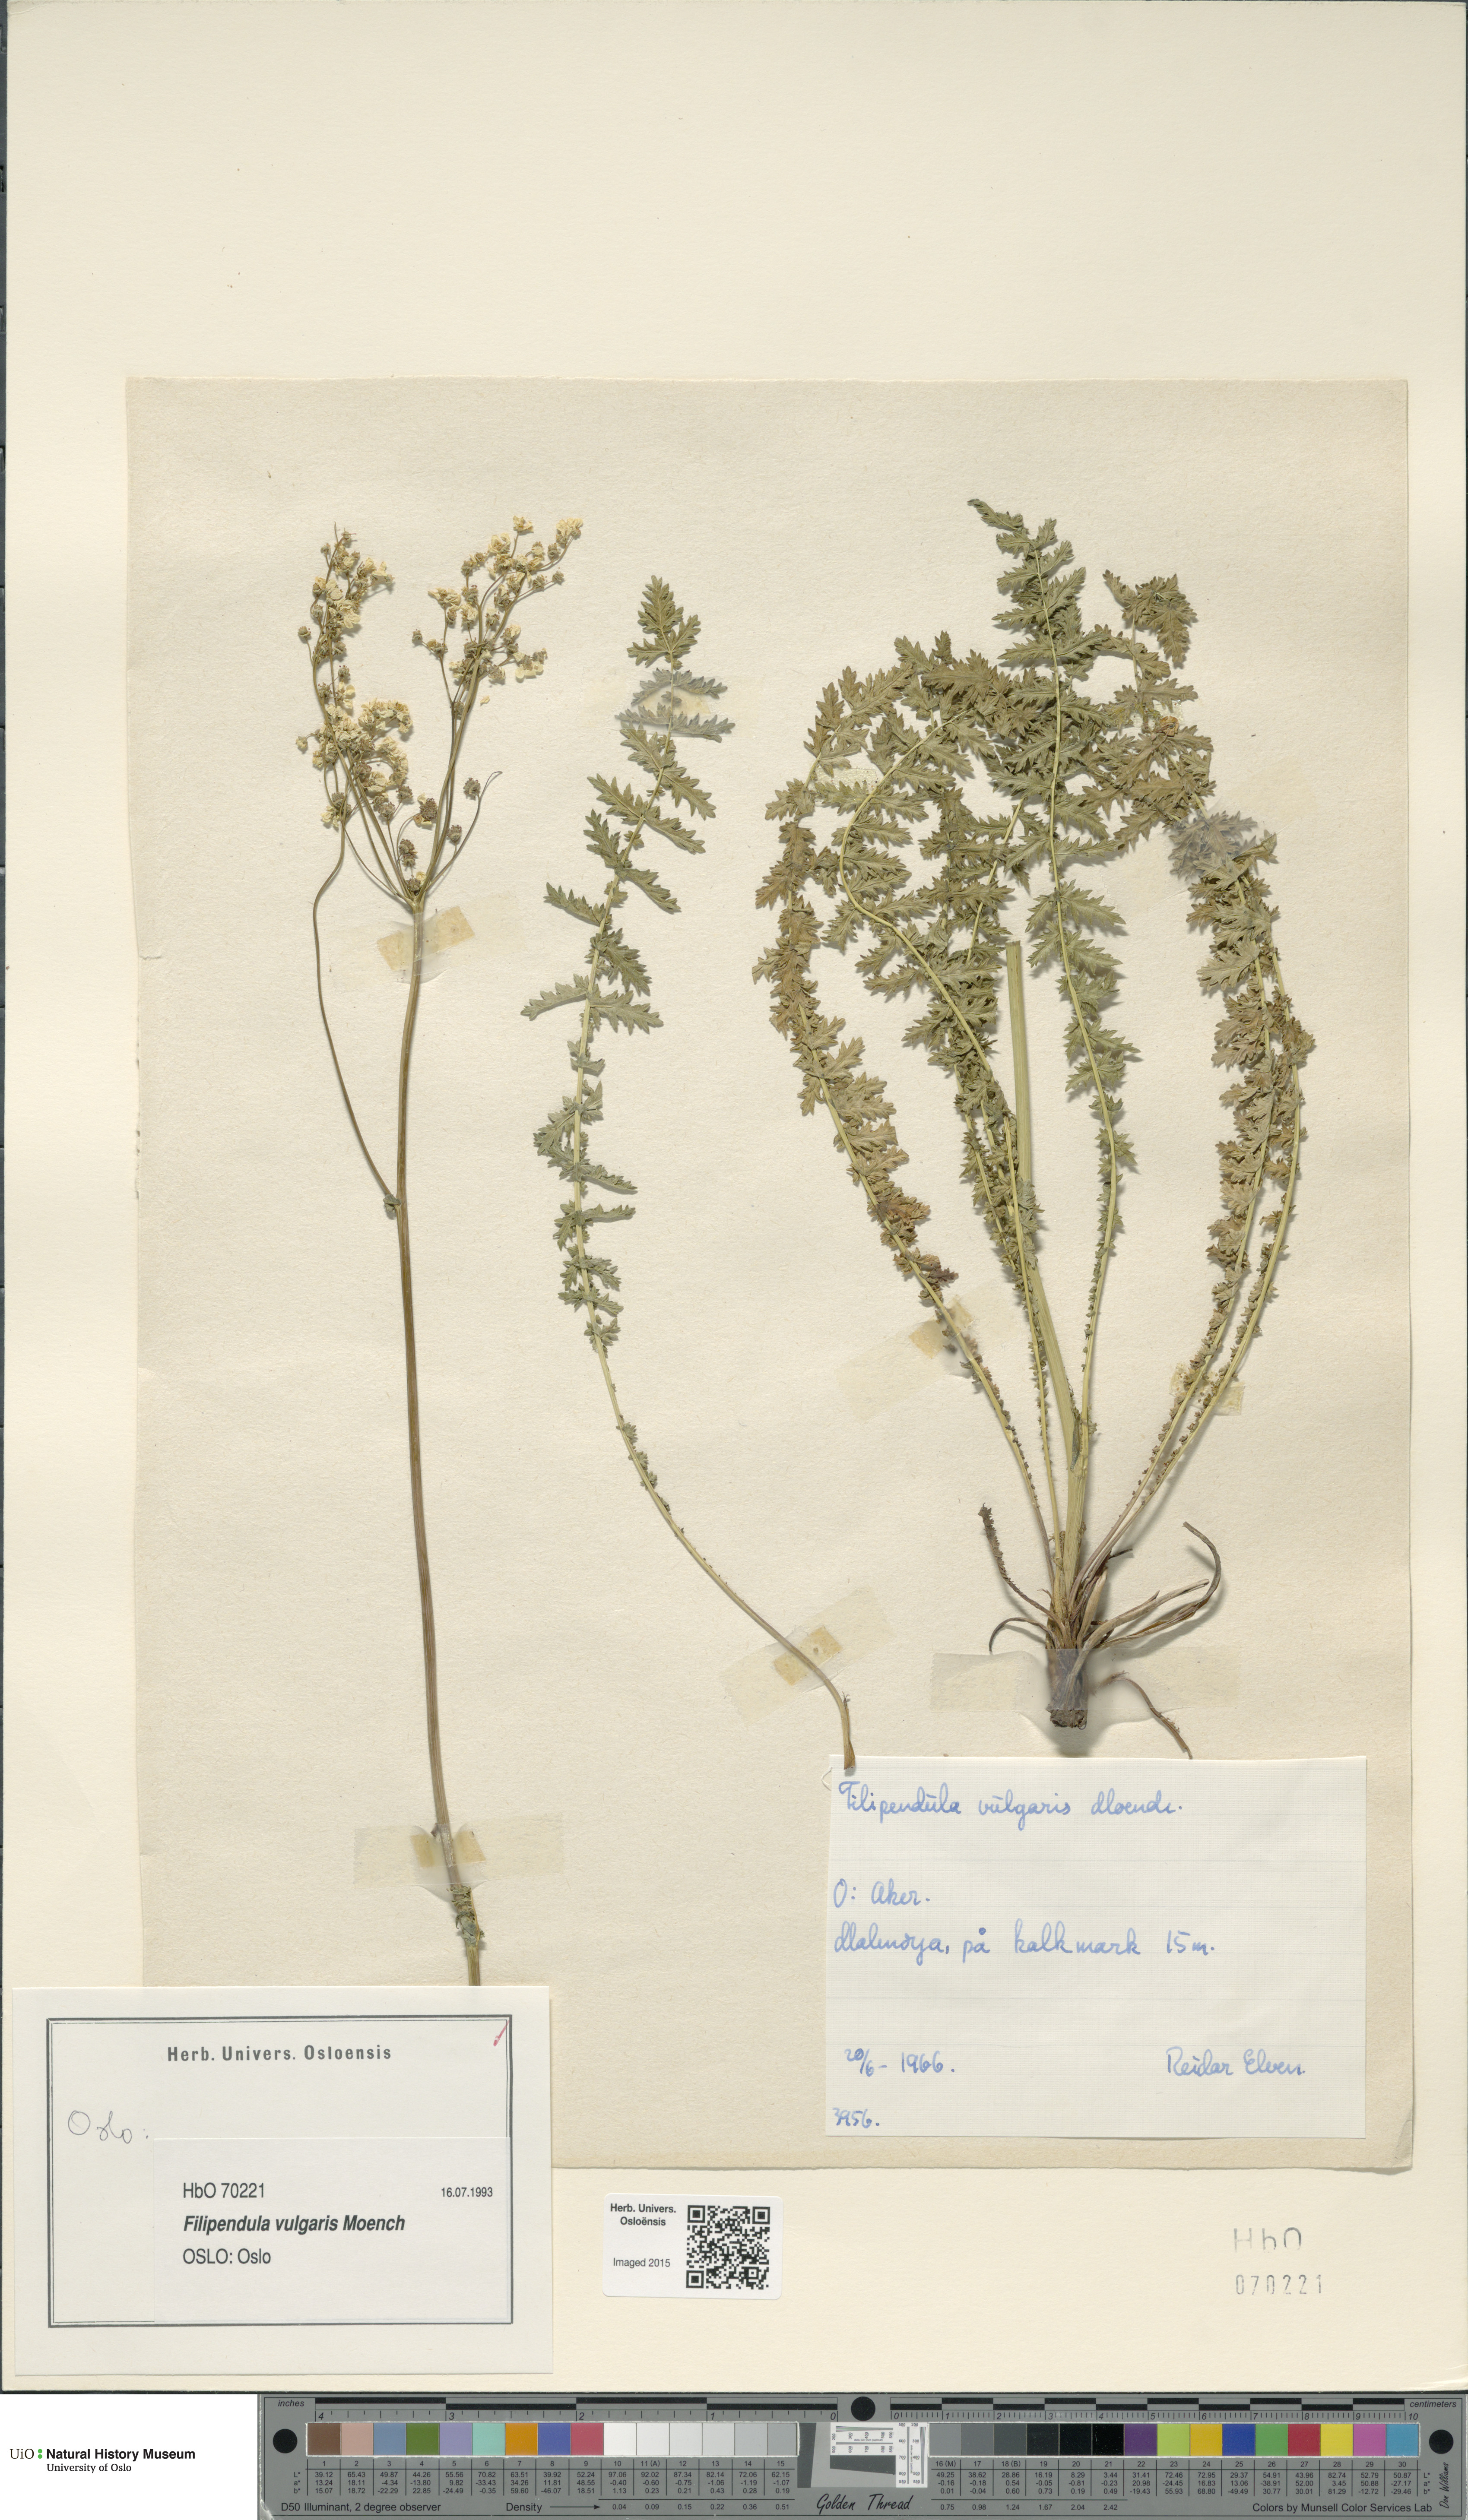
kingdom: Plantae
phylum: Tracheophyta
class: Magnoliopsida
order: Rosales
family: Rosaceae
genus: Filipendula
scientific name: Filipendula vulgaris
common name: Dropwort
